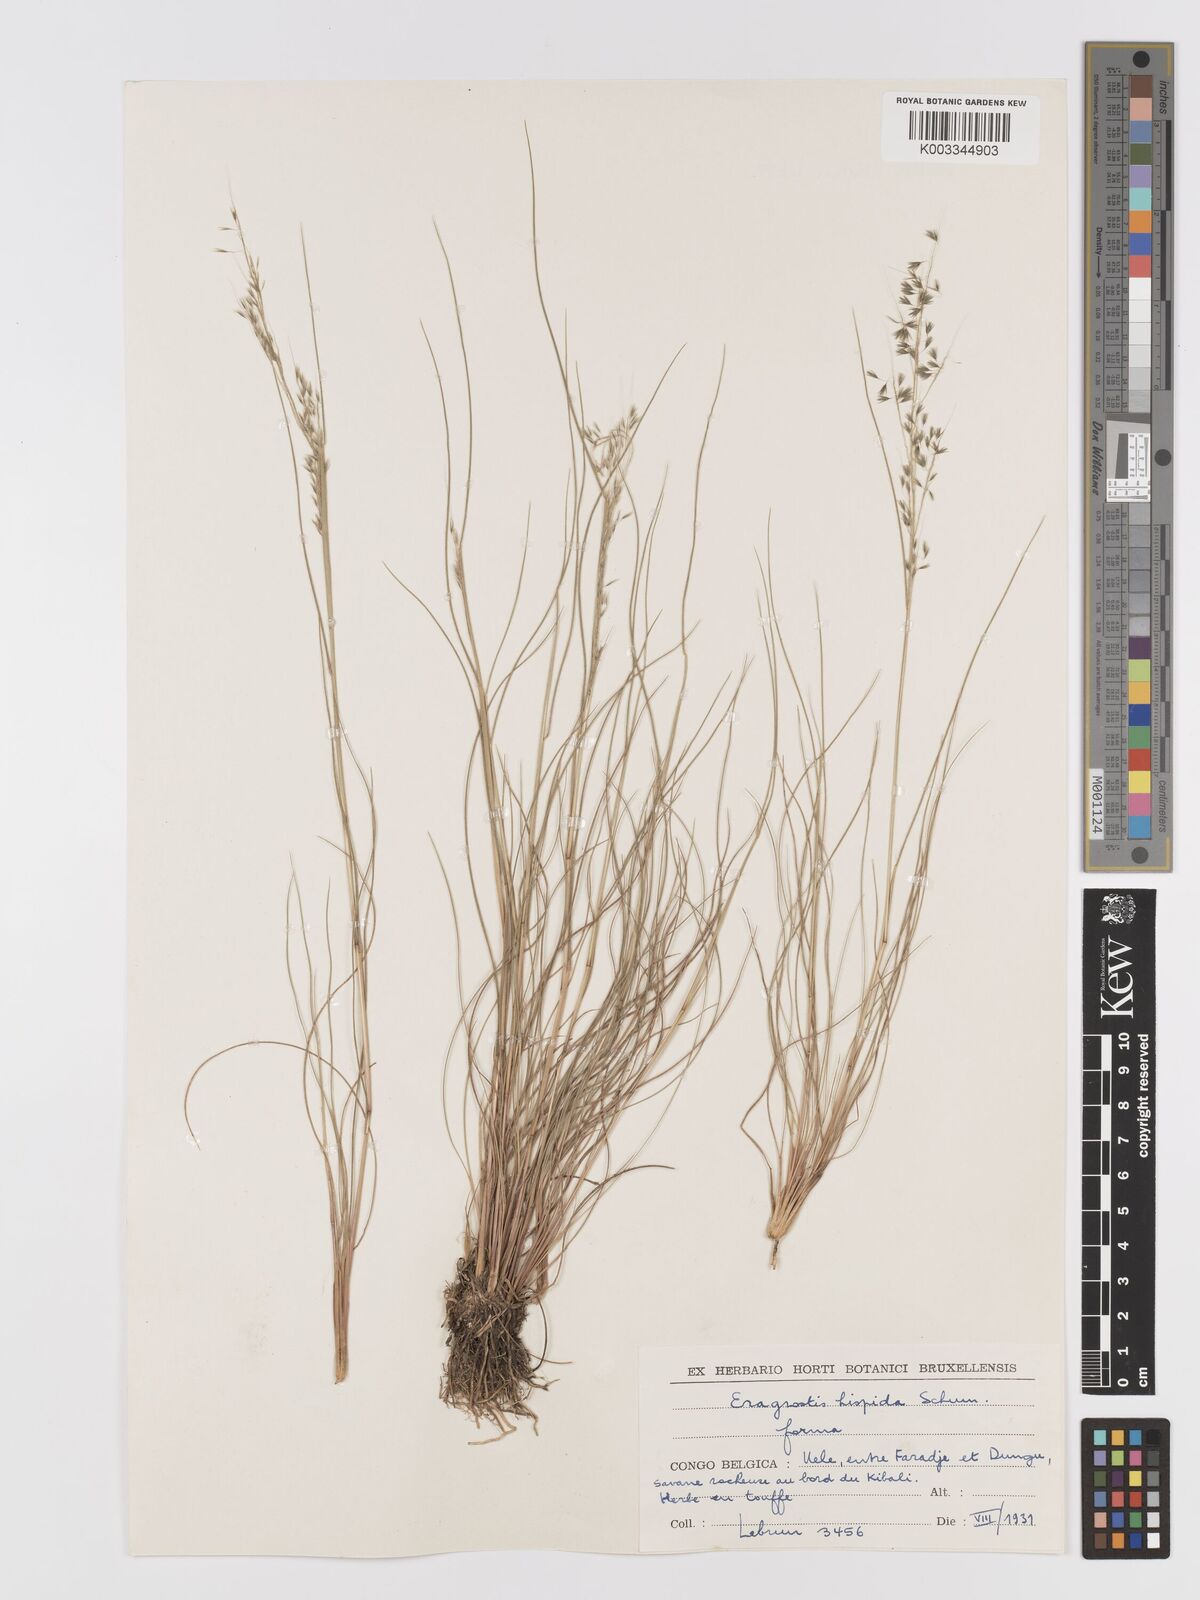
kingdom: Plantae
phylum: Tracheophyta
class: Liliopsida
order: Poales
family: Poaceae
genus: Eragrostis
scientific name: Eragrostis hispida
